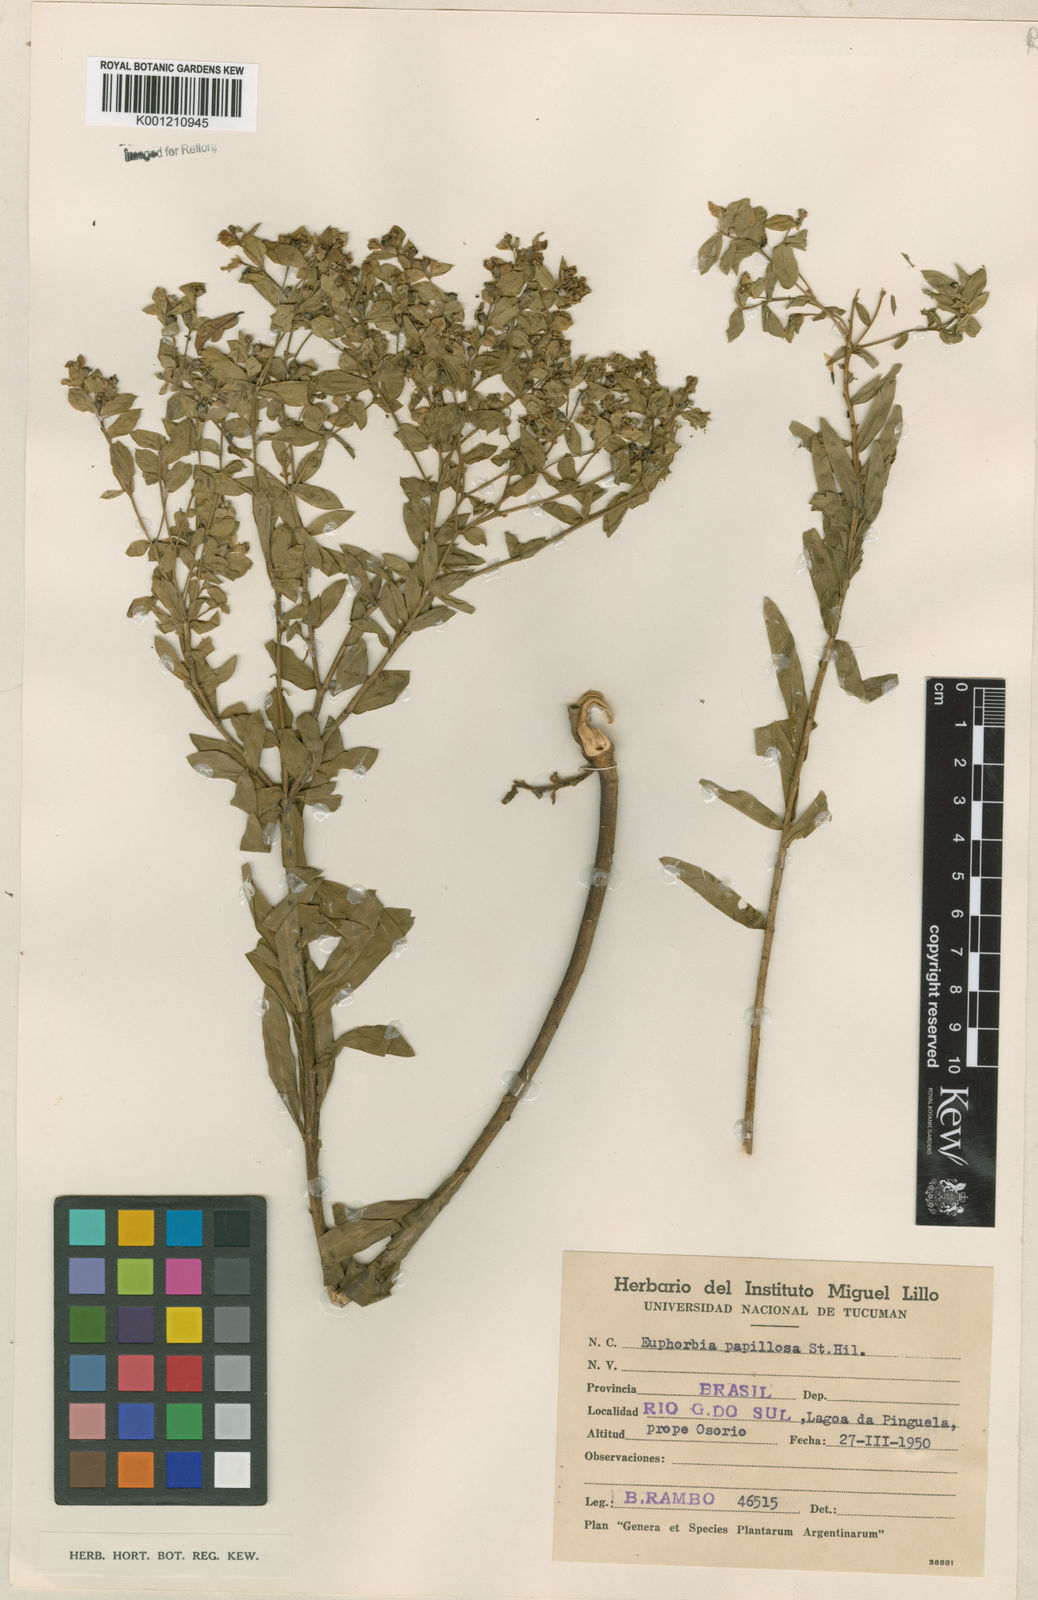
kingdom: Plantae
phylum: Tracheophyta
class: Magnoliopsida
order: Malpighiales
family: Euphorbiaceae
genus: Euphorbia
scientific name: Euphorbia papillosa
